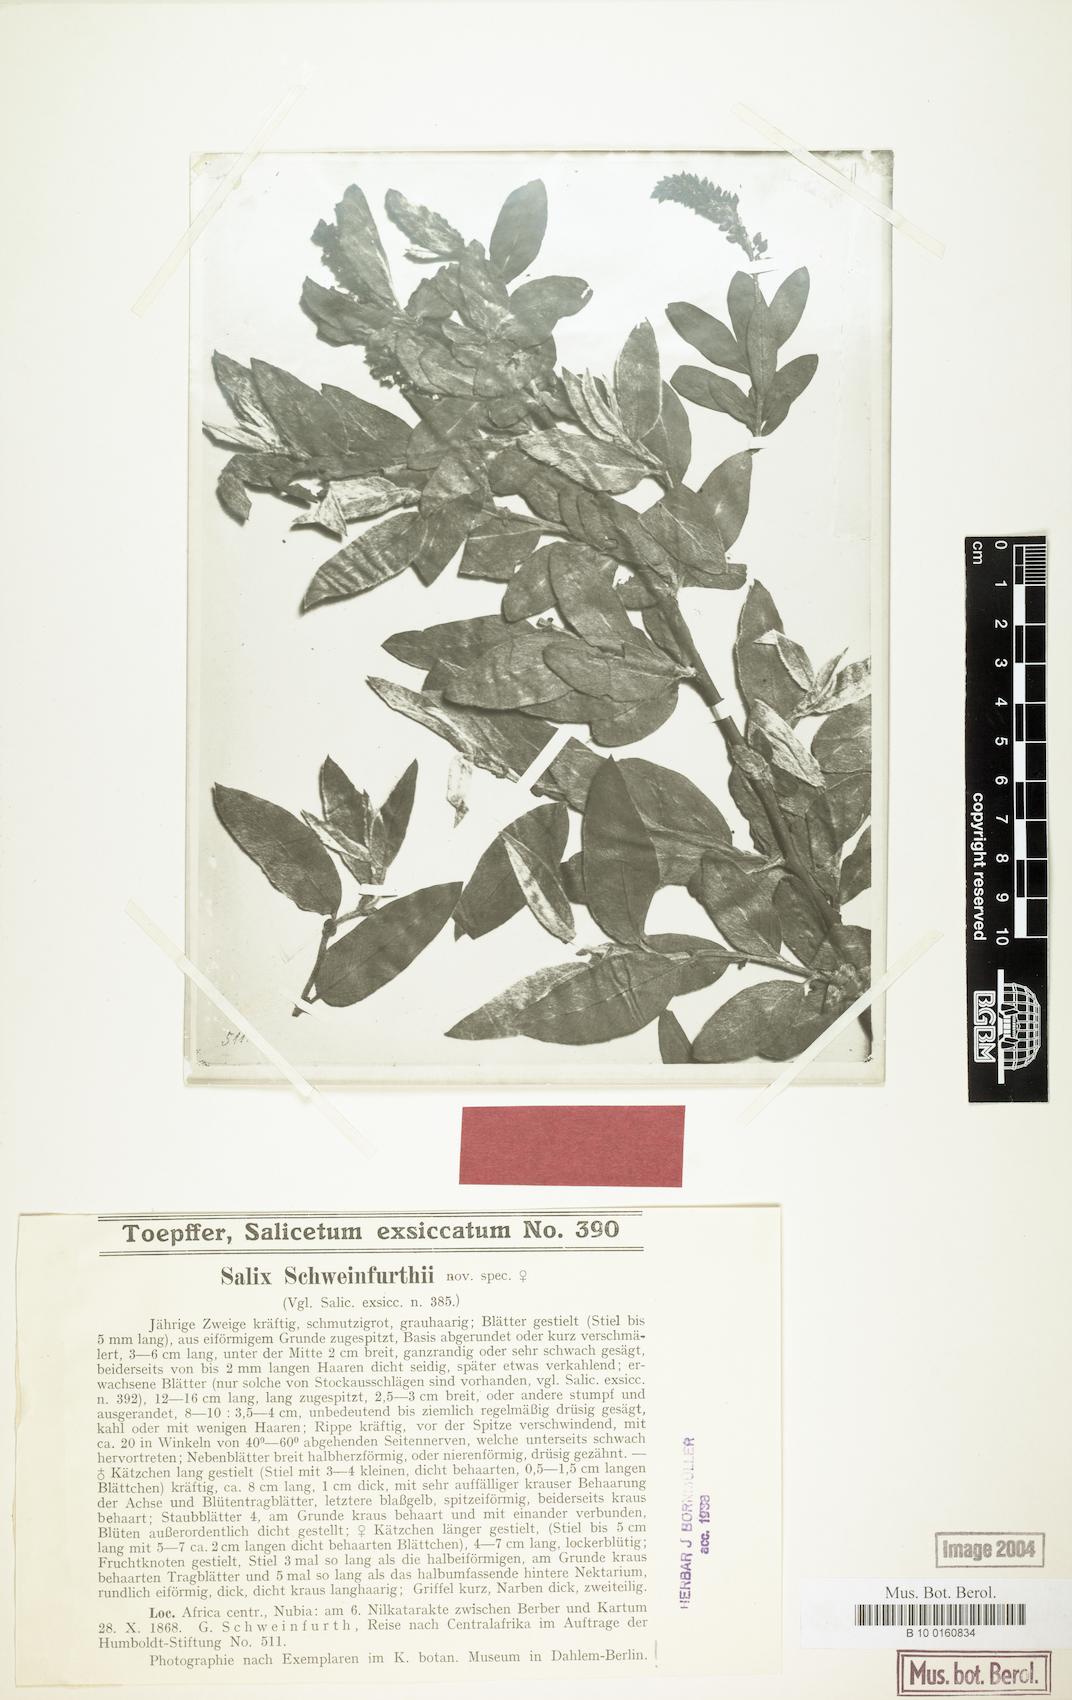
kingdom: Plantae
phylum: Tracheophyta
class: Magnoliopsida
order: Malpighiales
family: Salicaceae
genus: Salix
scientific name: Salix mucronata
